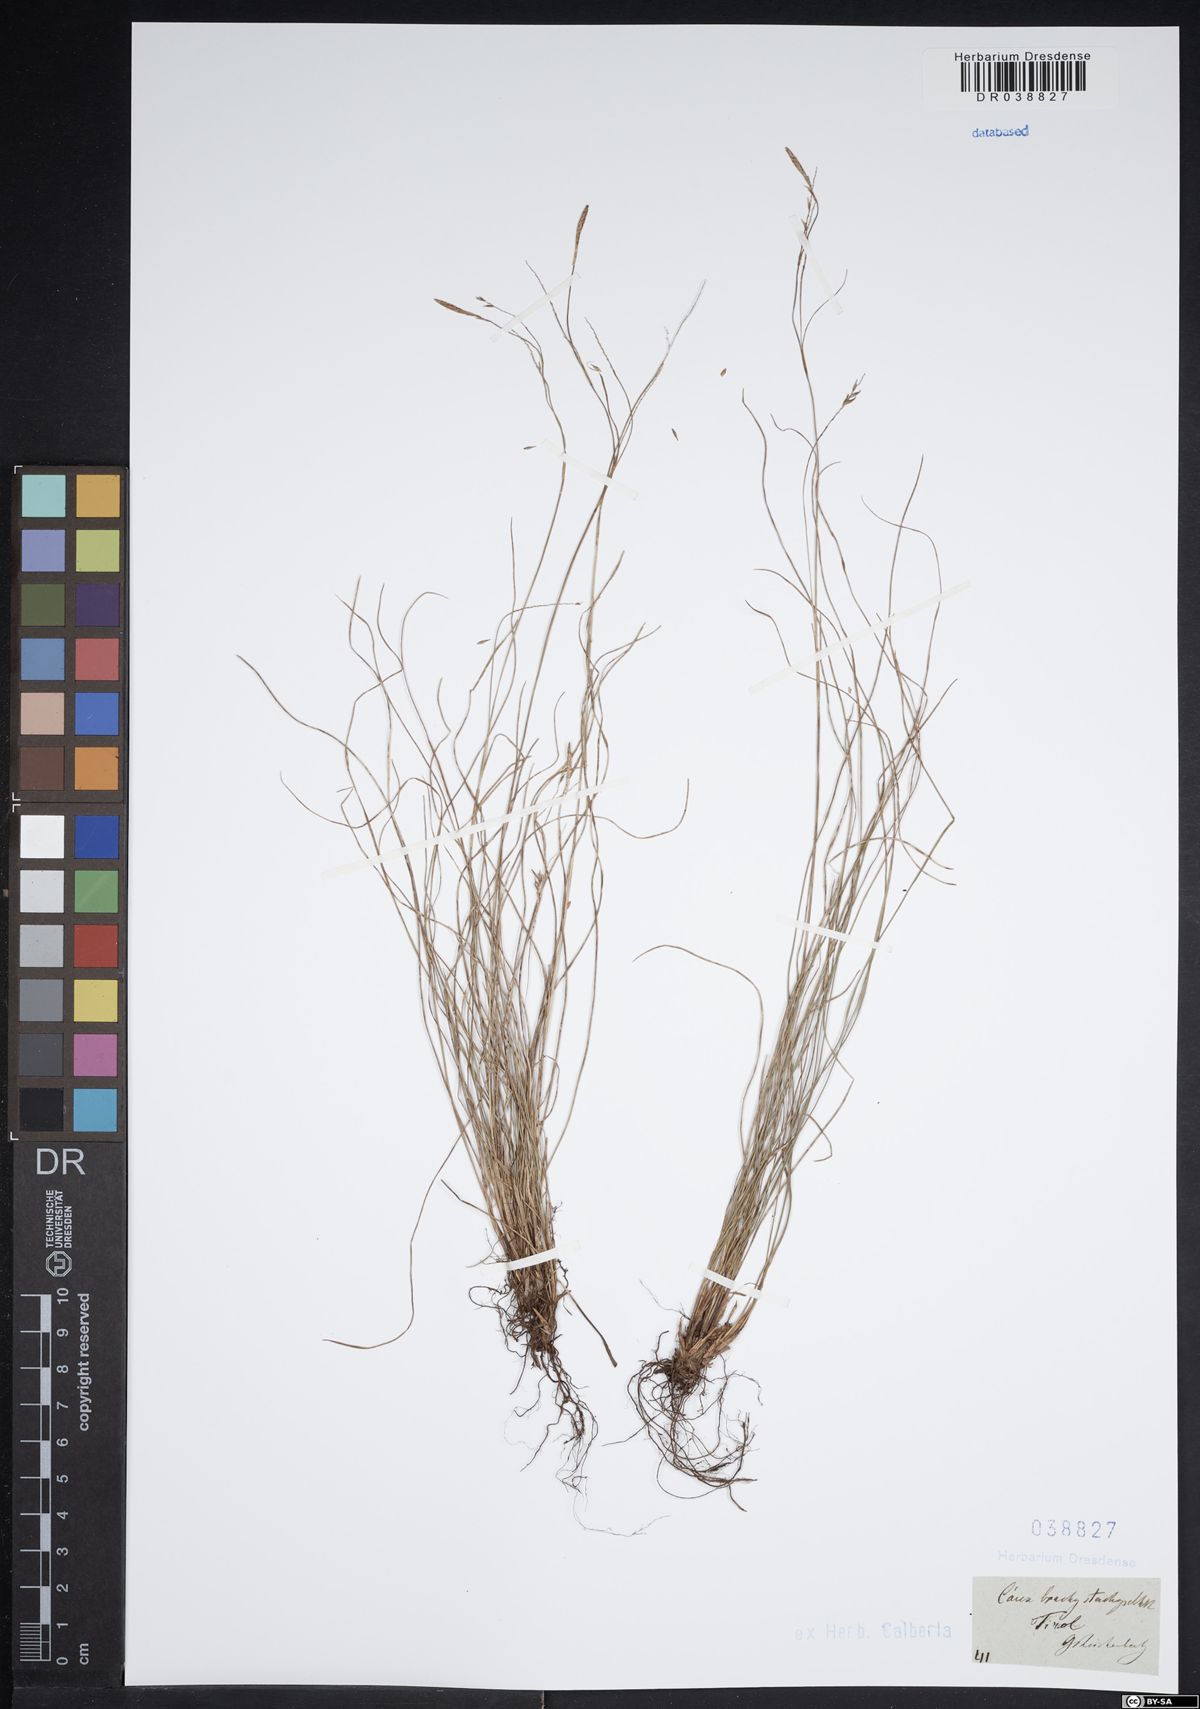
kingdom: Plantae
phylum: Tracheophyta
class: Liliopsida
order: Poales
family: Cyperaceae
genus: Carex
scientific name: Carex brachystachys
